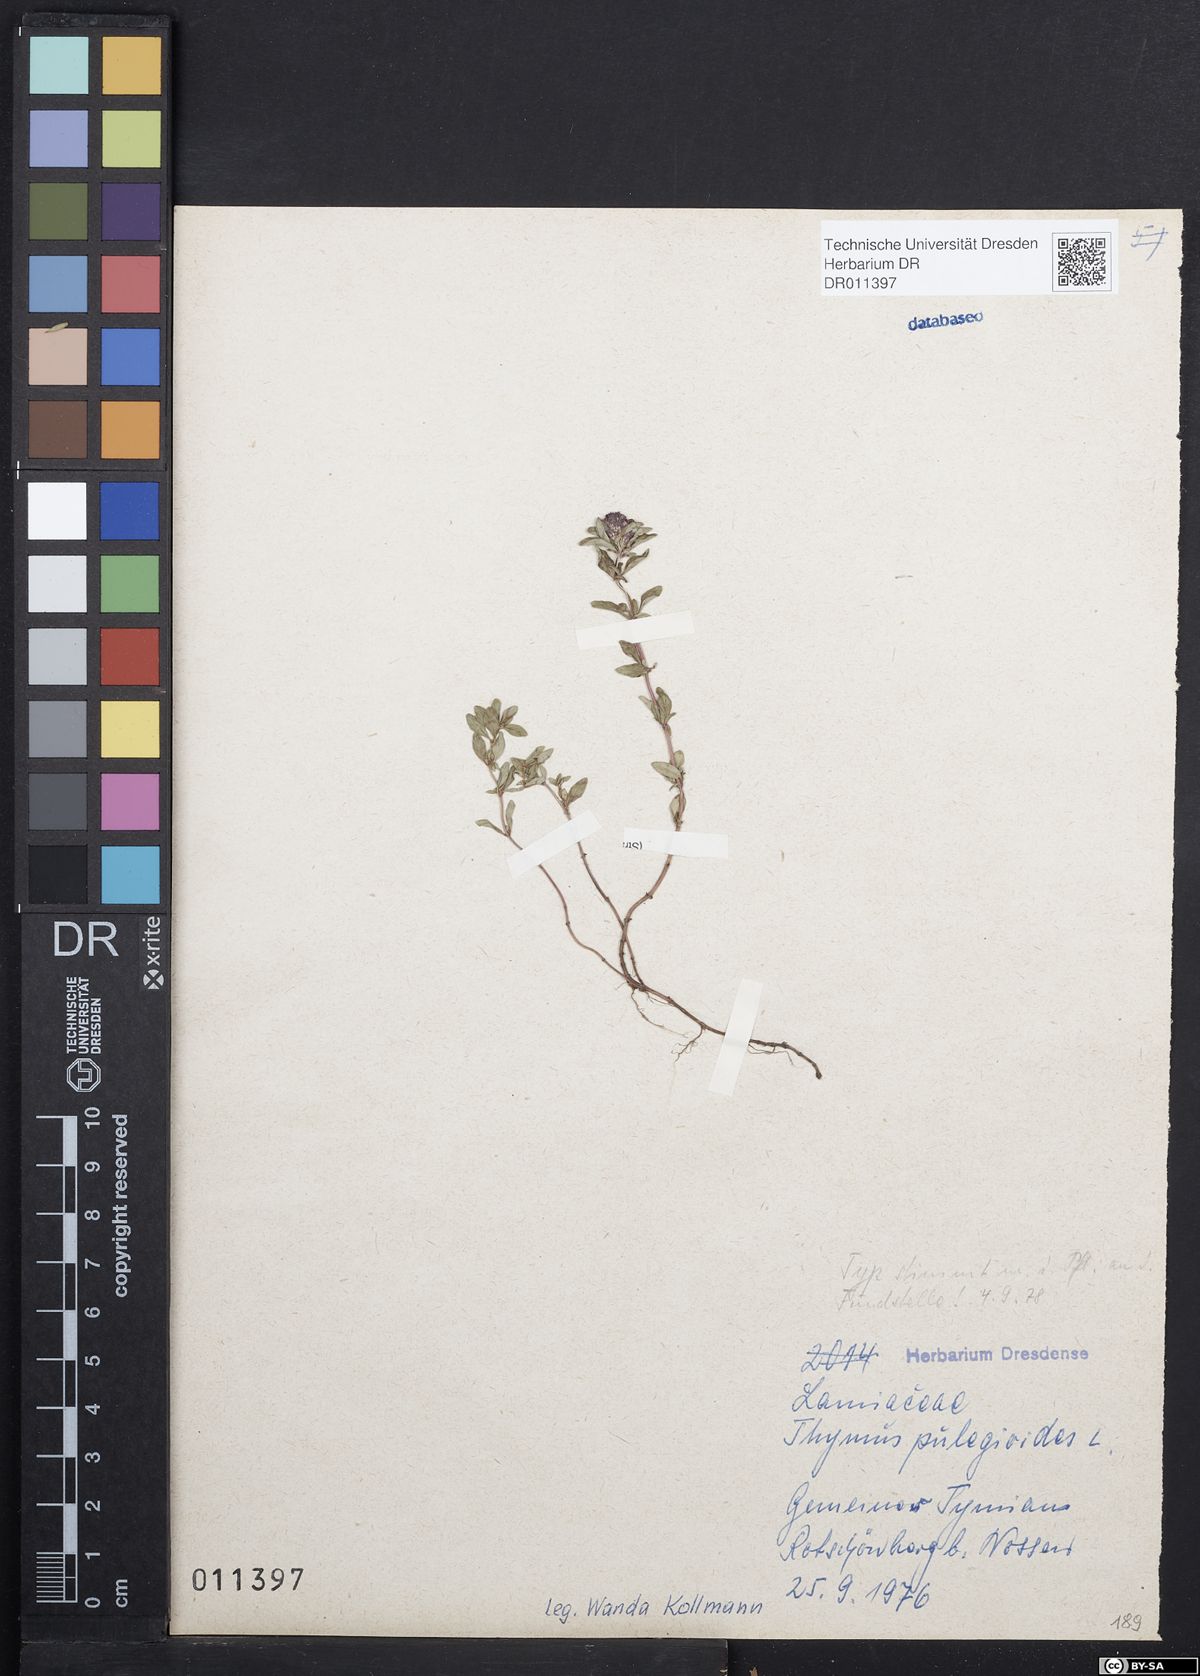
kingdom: Plantae
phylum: Tracheophyta
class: Magnoliopsida
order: Lamiales
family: Lamiaceae
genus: Thymus
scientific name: Thymus pulegioides
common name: Large thyme
